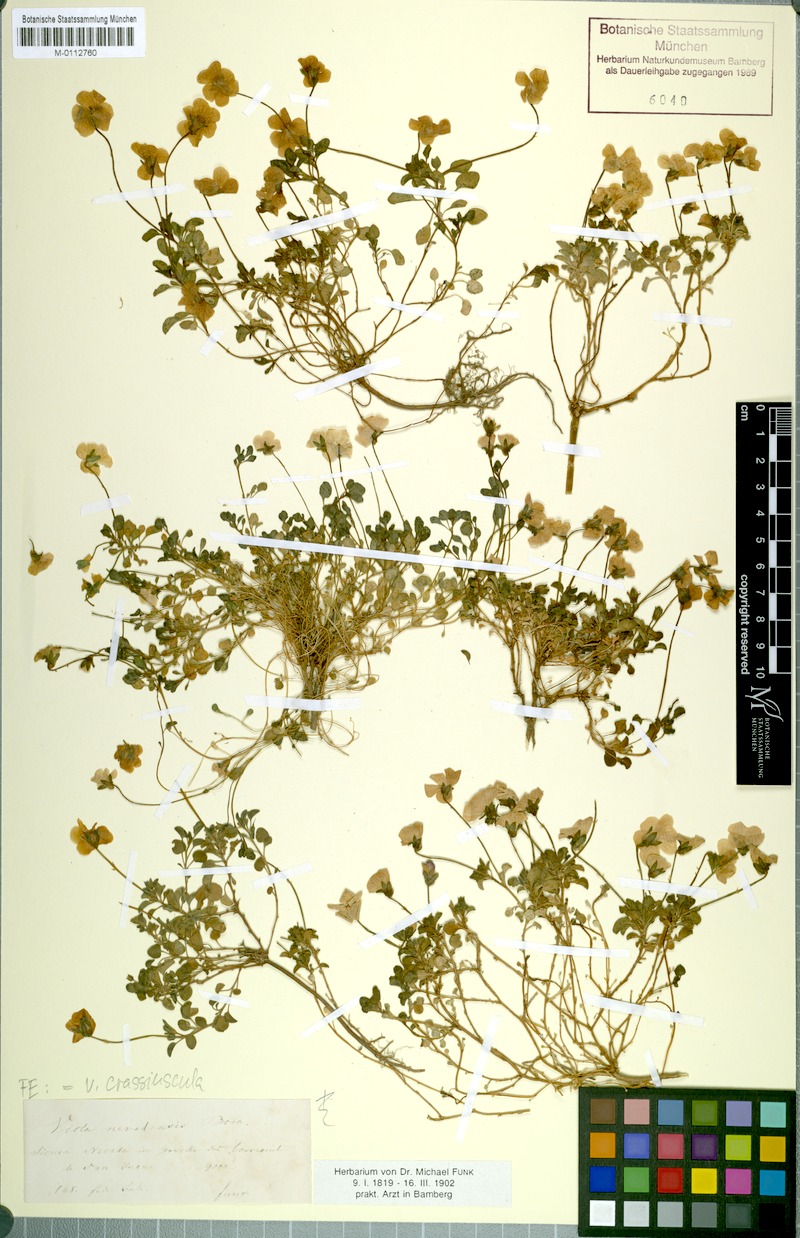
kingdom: Plantae
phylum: Tracheophyta
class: Magnoliopsida
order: Malpighiales
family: Violaceae
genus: Viola
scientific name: Viola crassiuscula
